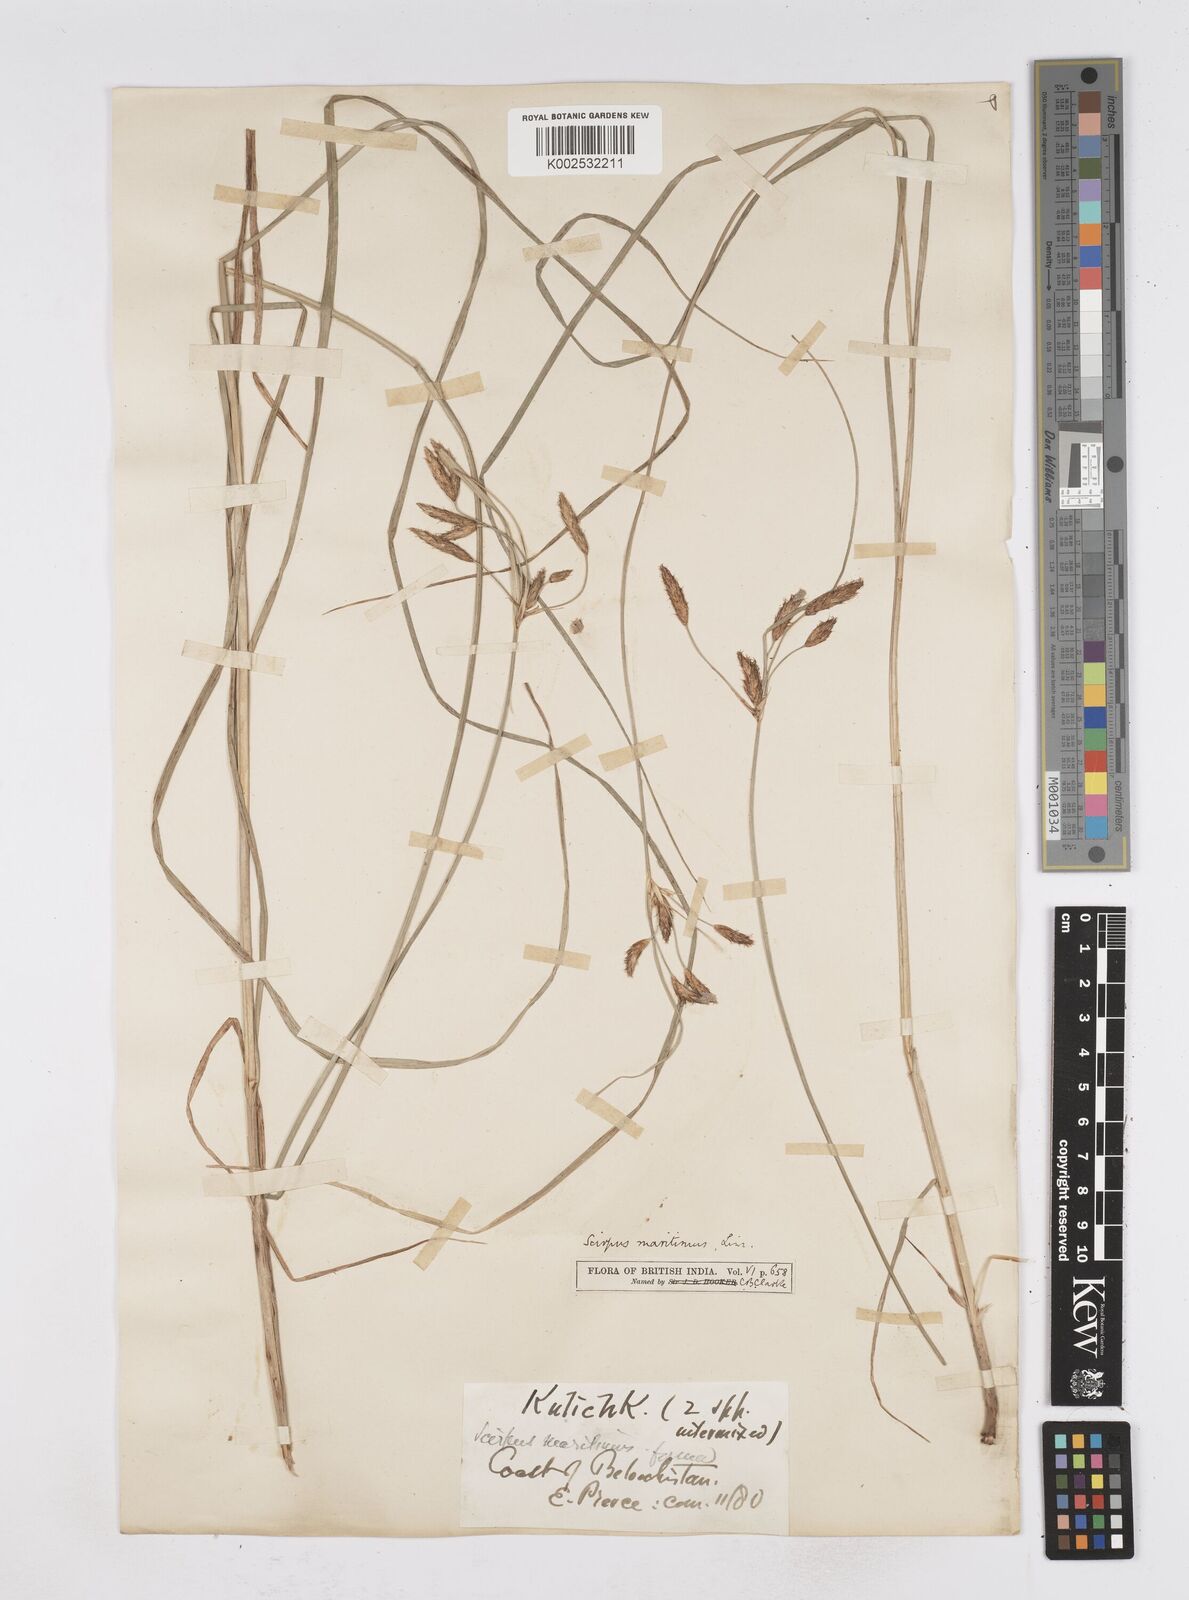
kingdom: Plantae
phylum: Tracheophyta
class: Liliopsida
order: Poales
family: Cyperaceae
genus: Bolboschoenus
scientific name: Bolboschoenus maritimus
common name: Sea club-rush
